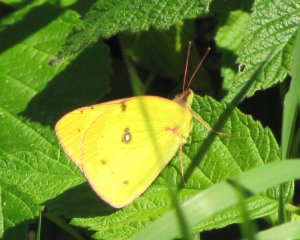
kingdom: Animalia
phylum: Arthropoda
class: Insecta
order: Lepidoptera
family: Pieridae
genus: Colias
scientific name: Colias philodice
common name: Clouded Sulphur
